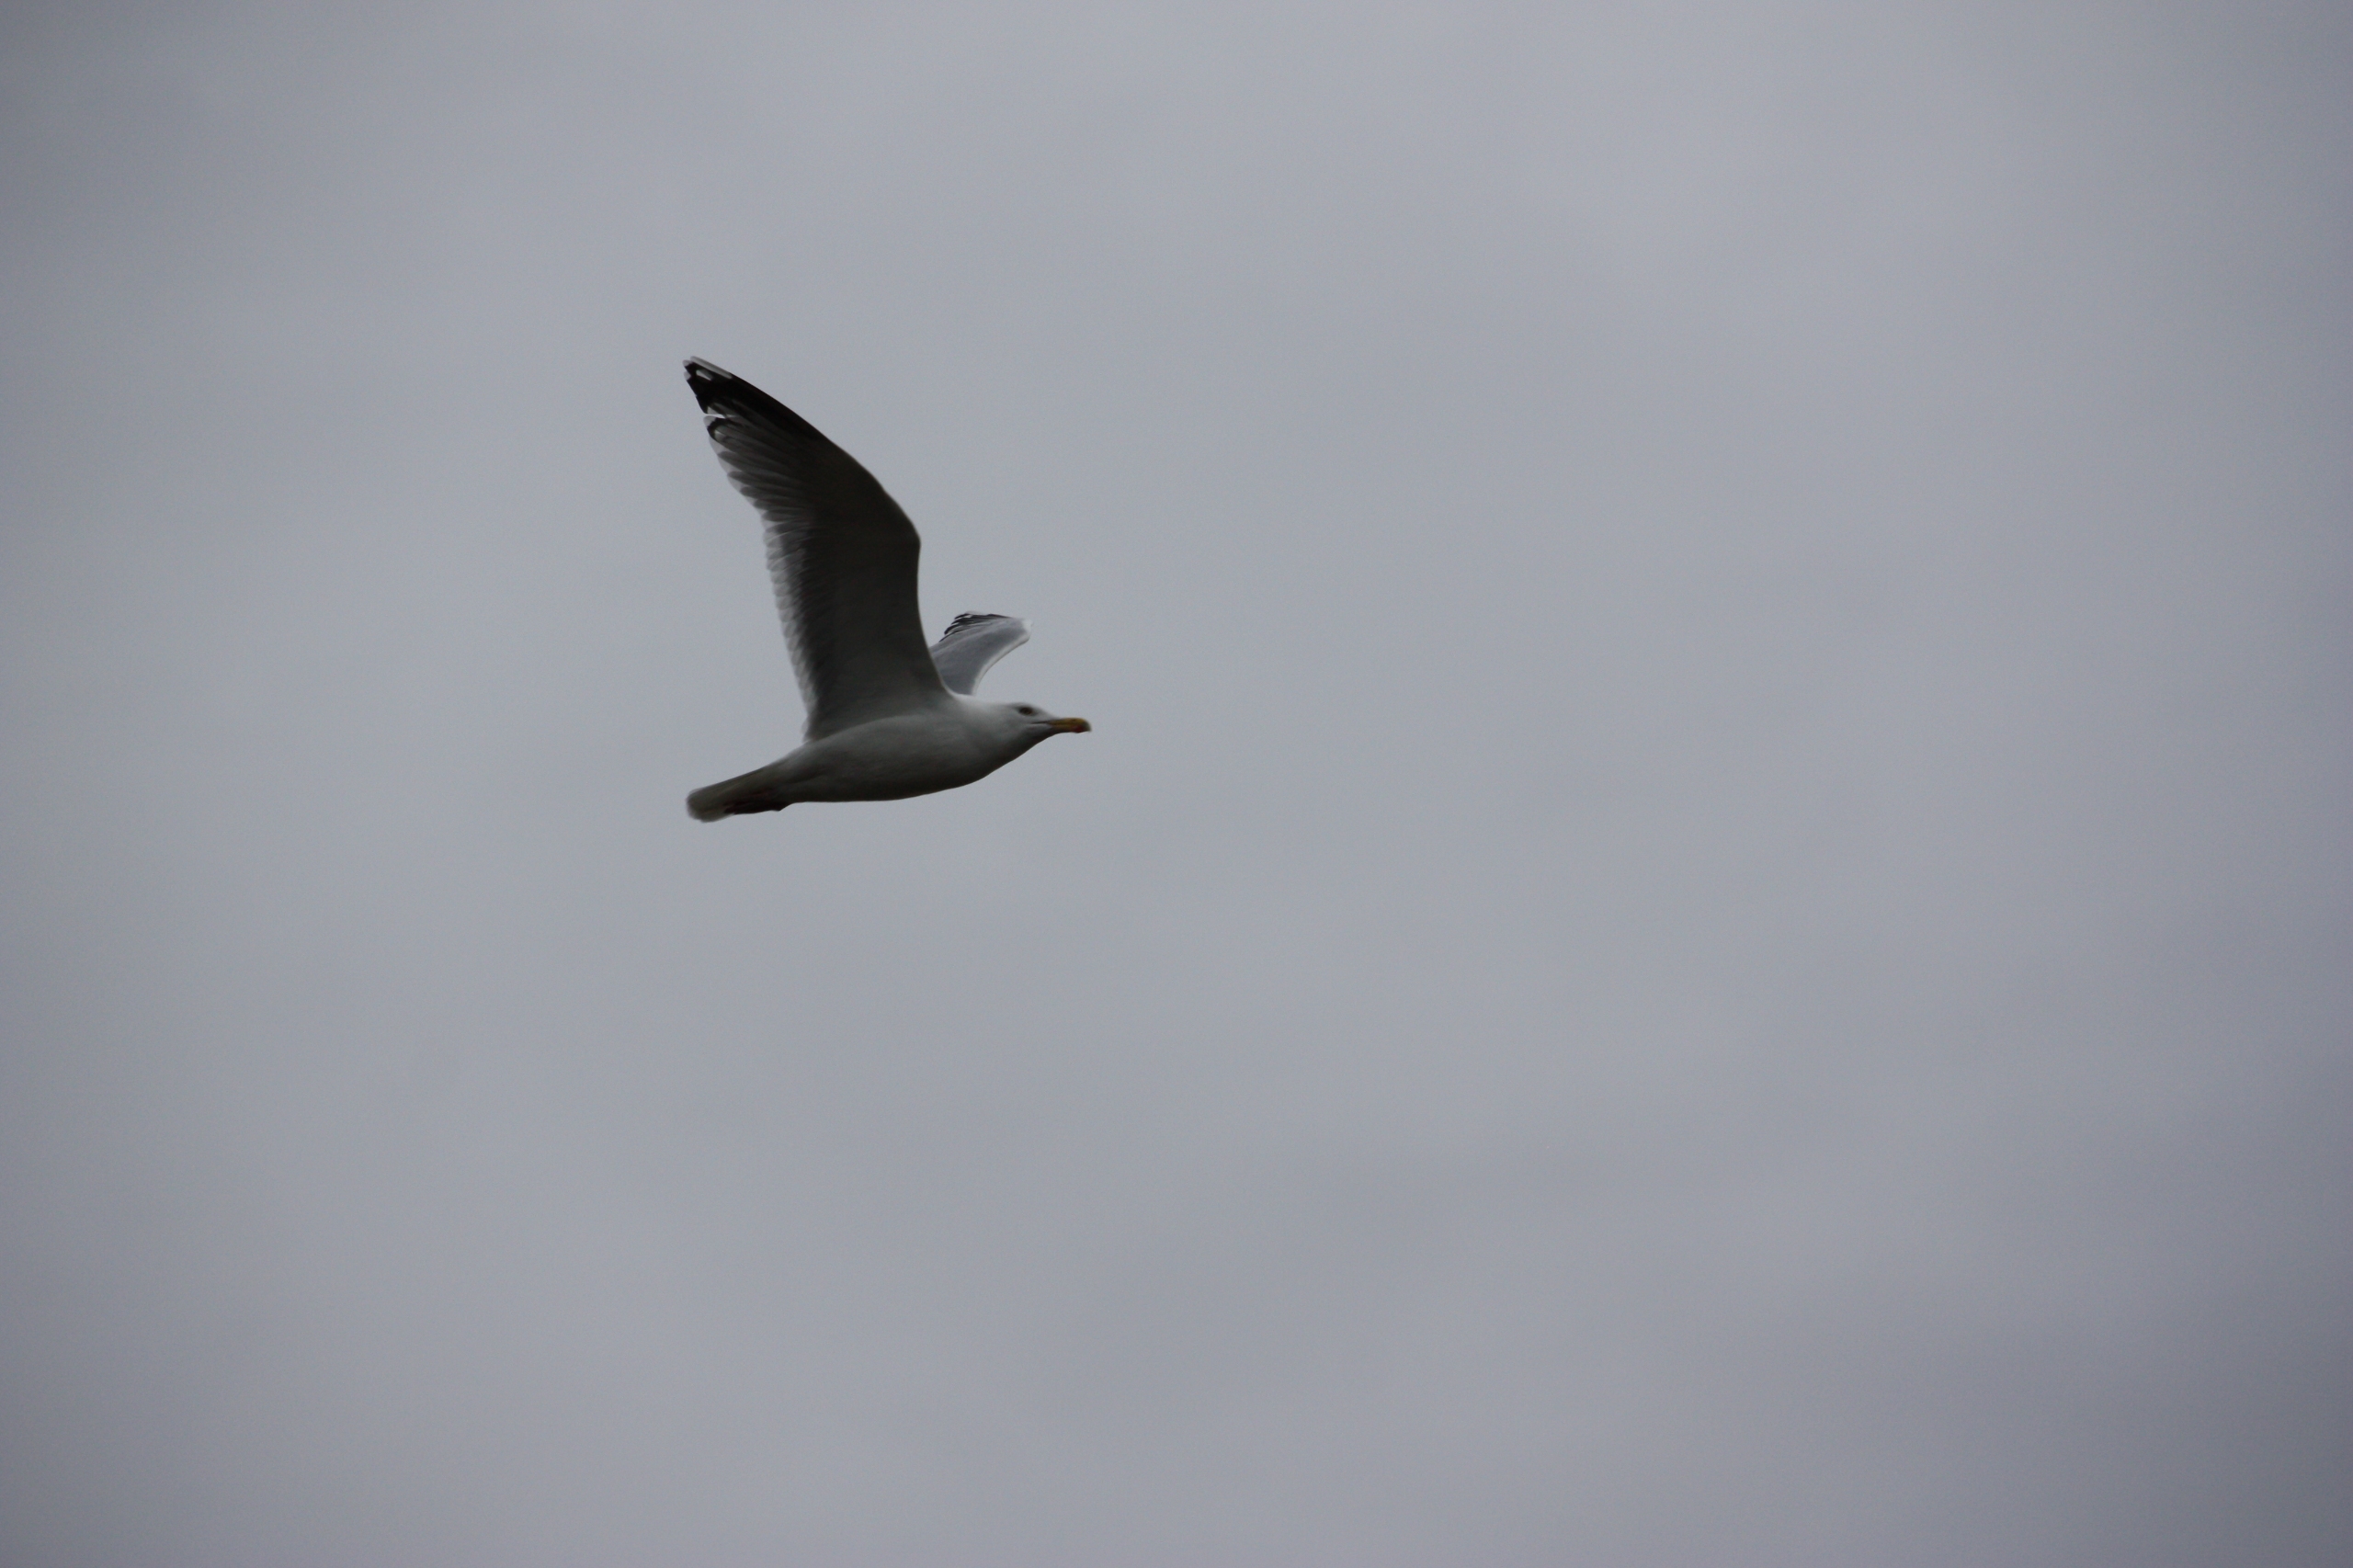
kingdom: Animalia
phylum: Chordata
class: Aves
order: Charadriiformes
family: Laridae
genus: Larus
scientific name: Larus argentatus
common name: Sølvmåge
